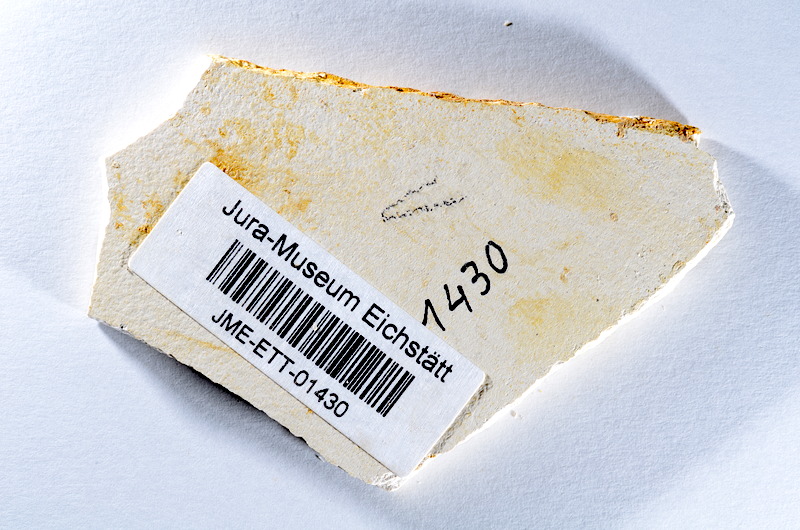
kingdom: Animalia
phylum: Chordata
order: Salmoniformes
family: Orthogonikleithridae
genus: Orthogonikleithrus
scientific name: Orthogonikleithrus hoelli
